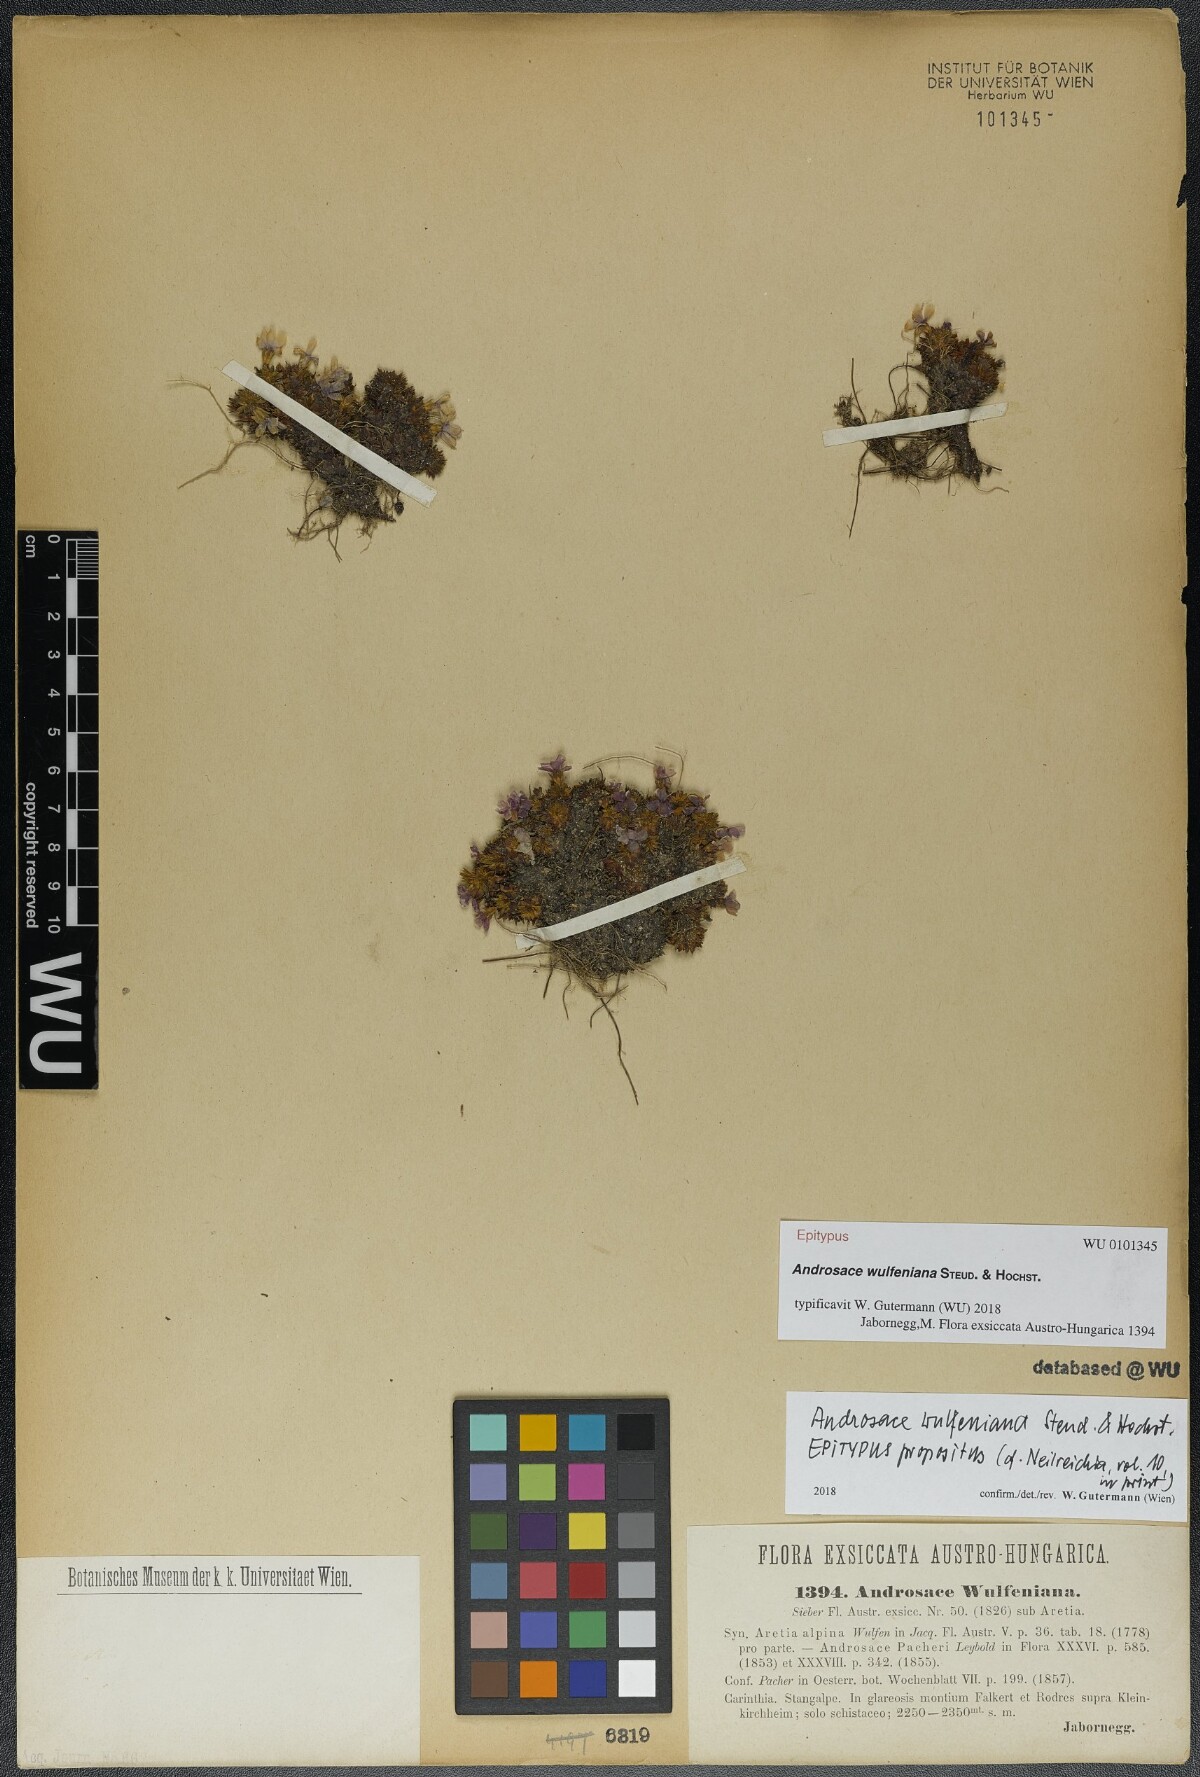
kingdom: Plantae
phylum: Tracheophyta
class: Magnoliopsida
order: Ericales
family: Primulaceae
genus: Androsace
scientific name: Androsace wulfeniana
